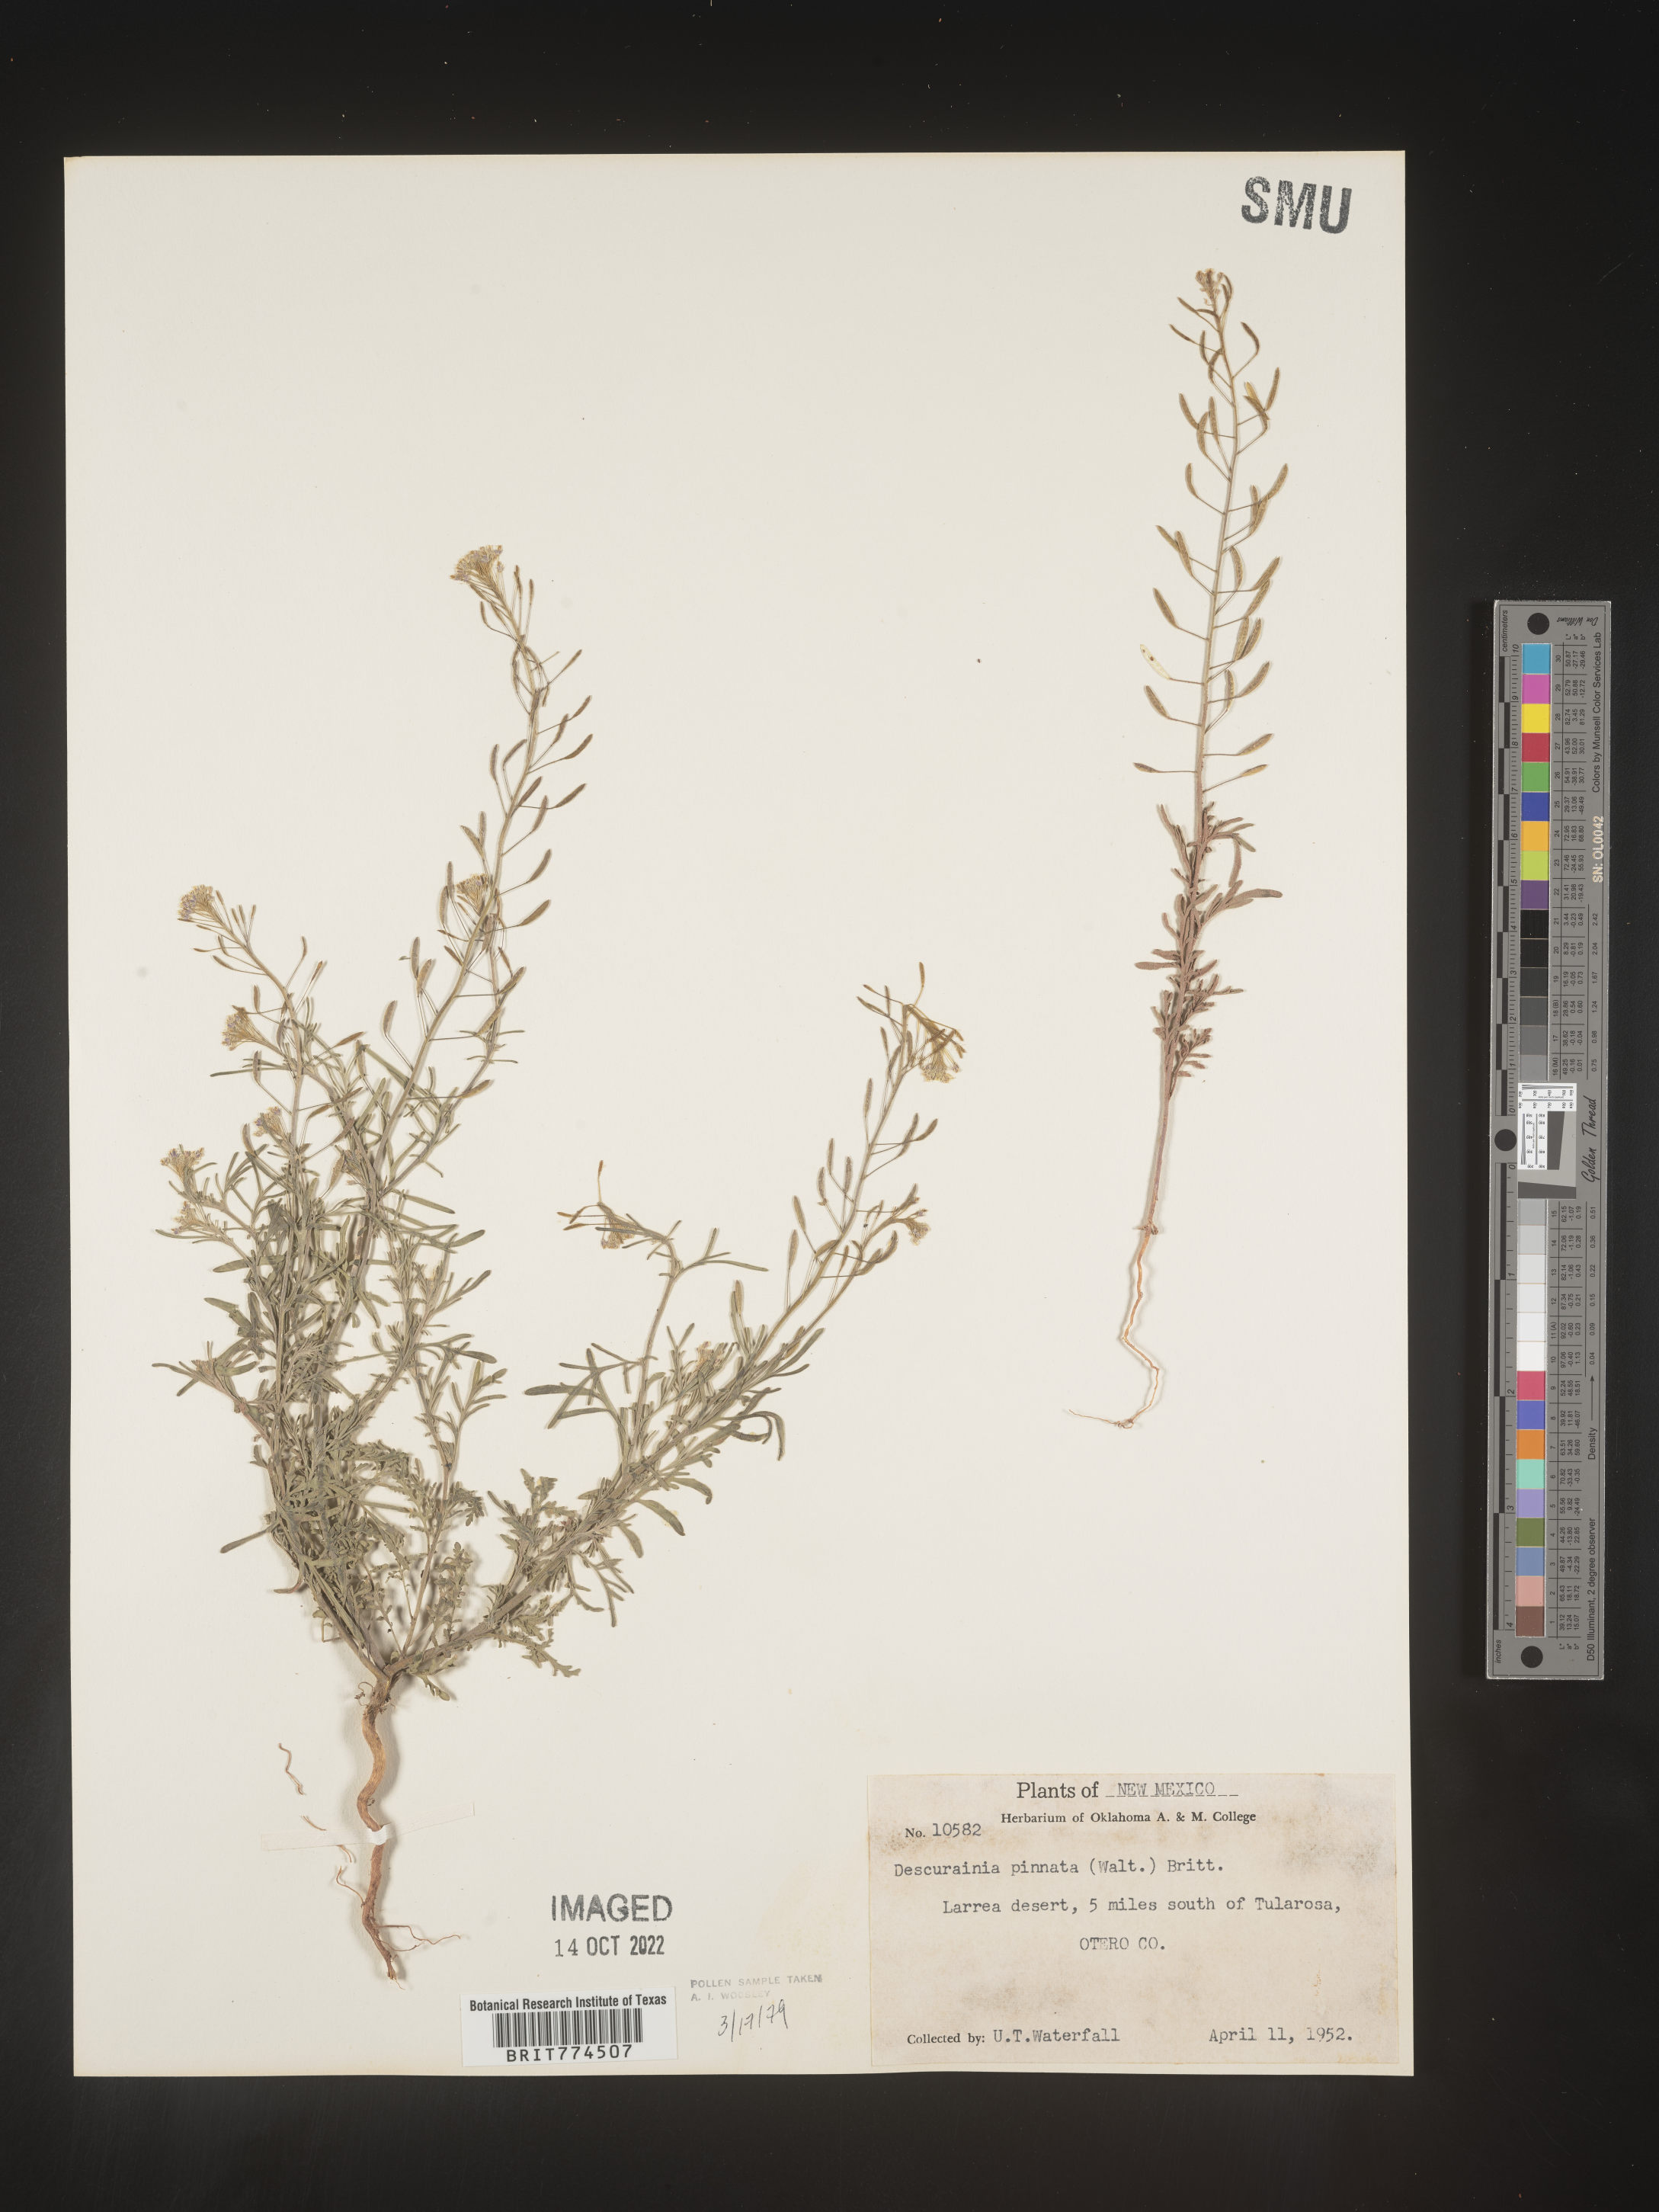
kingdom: Plantae
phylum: Tracheophyta
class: Magnoliopsida
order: Brassicales
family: Brassicaceae
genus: Descurainia
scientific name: Descurainia pinnata
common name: Western tansy mustard
